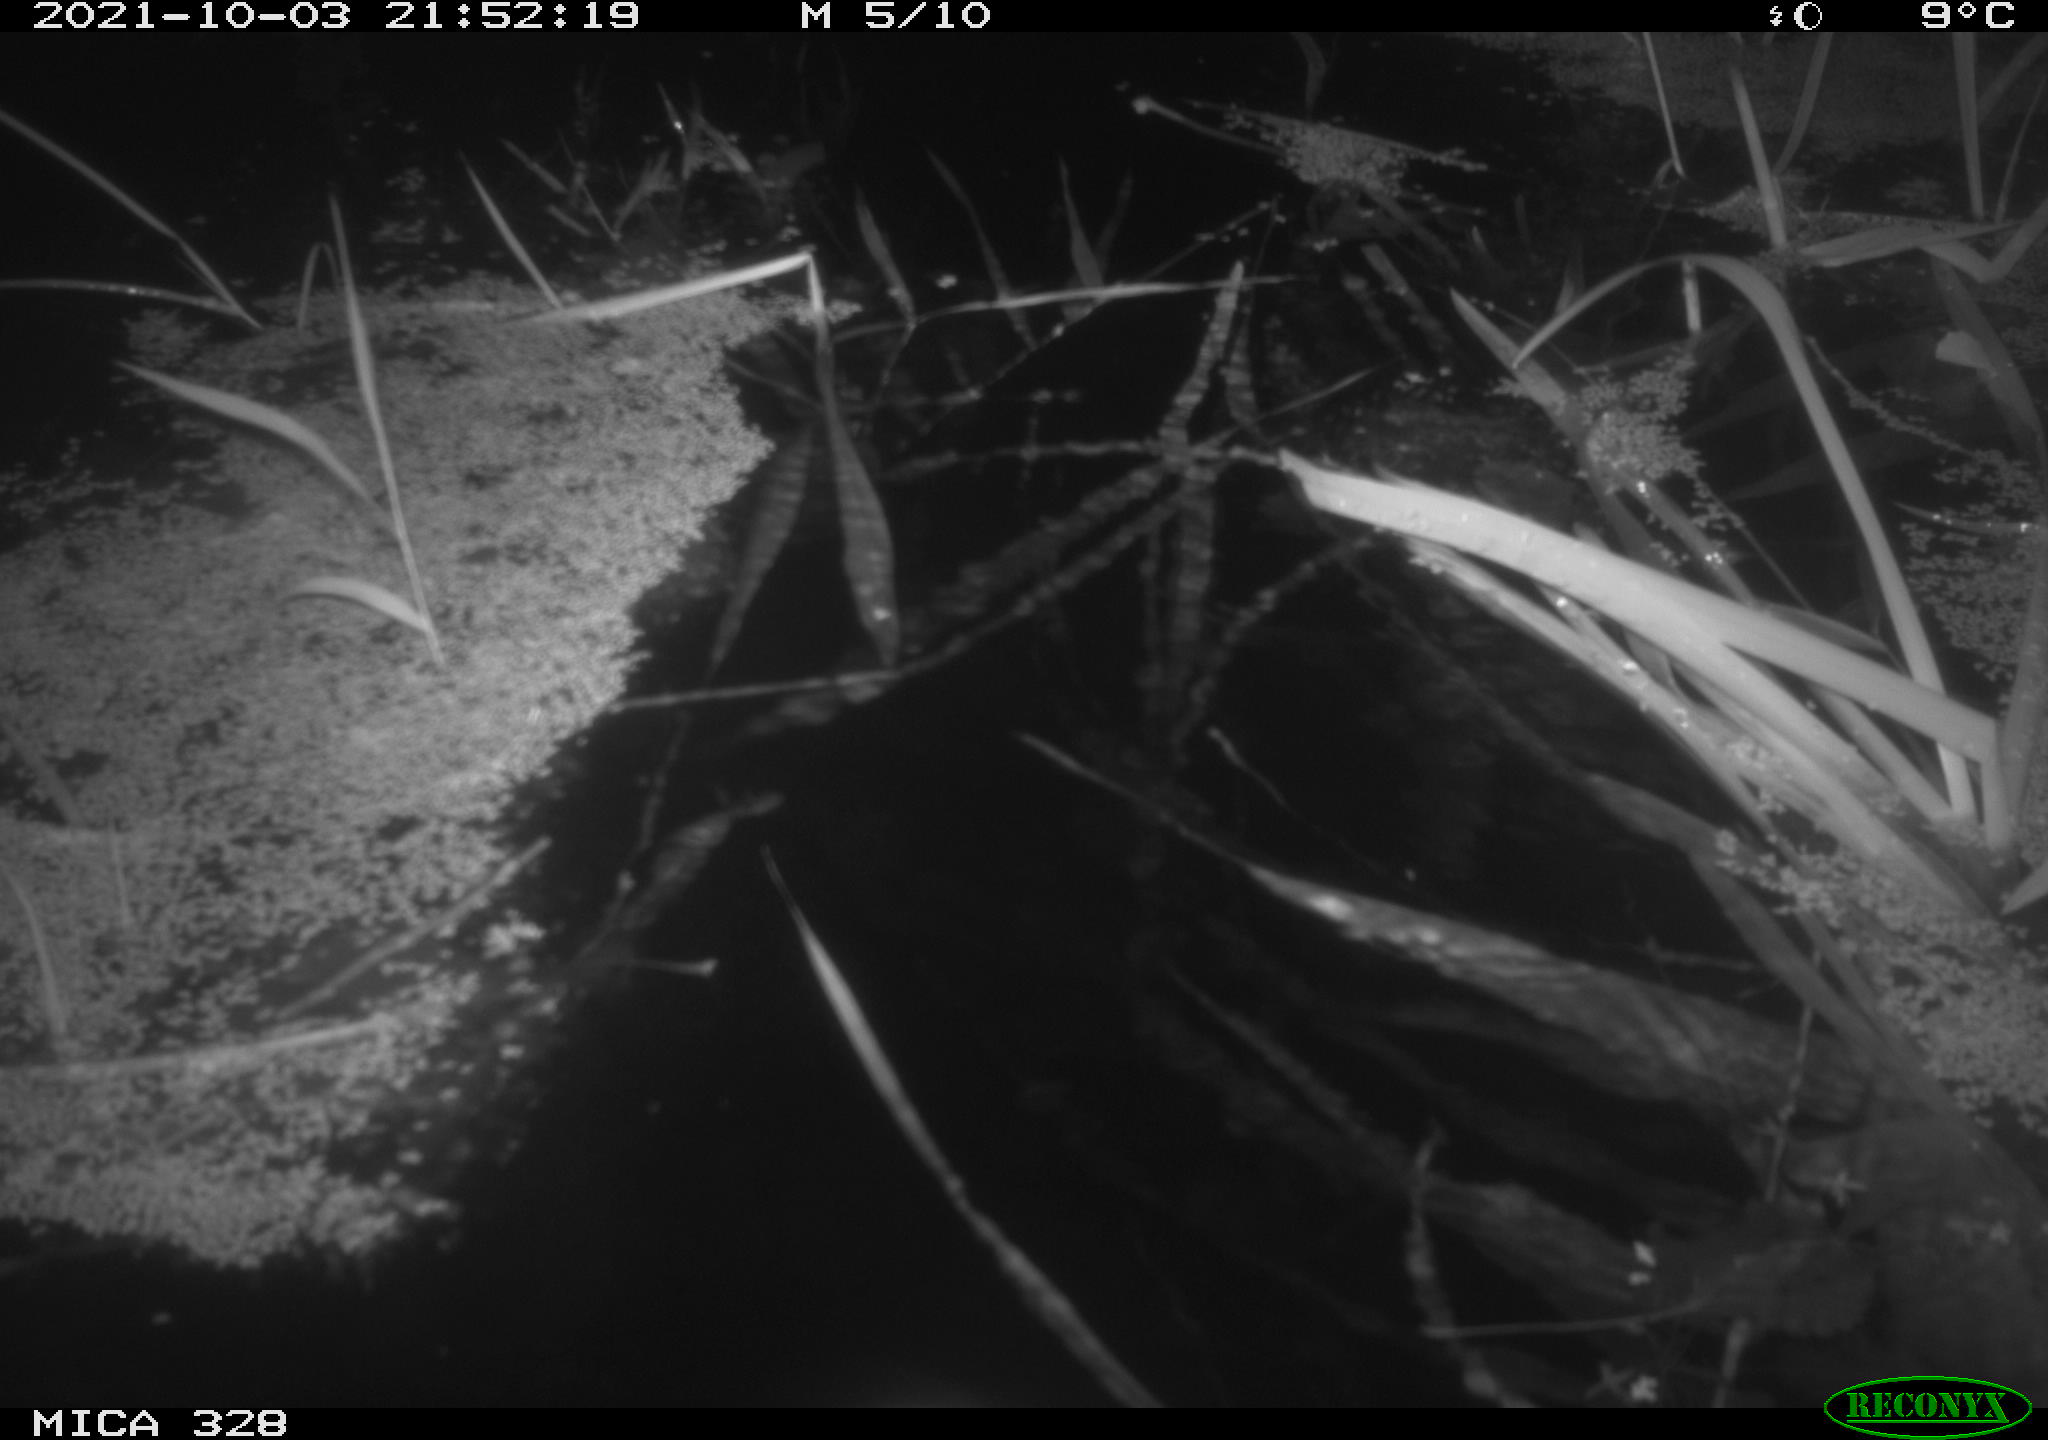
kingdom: Animalia
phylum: Chordata
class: Mammalia
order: Rodentia
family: Cricetidae
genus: Ondatra
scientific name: Ondatra zibethicus
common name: Muskrat
